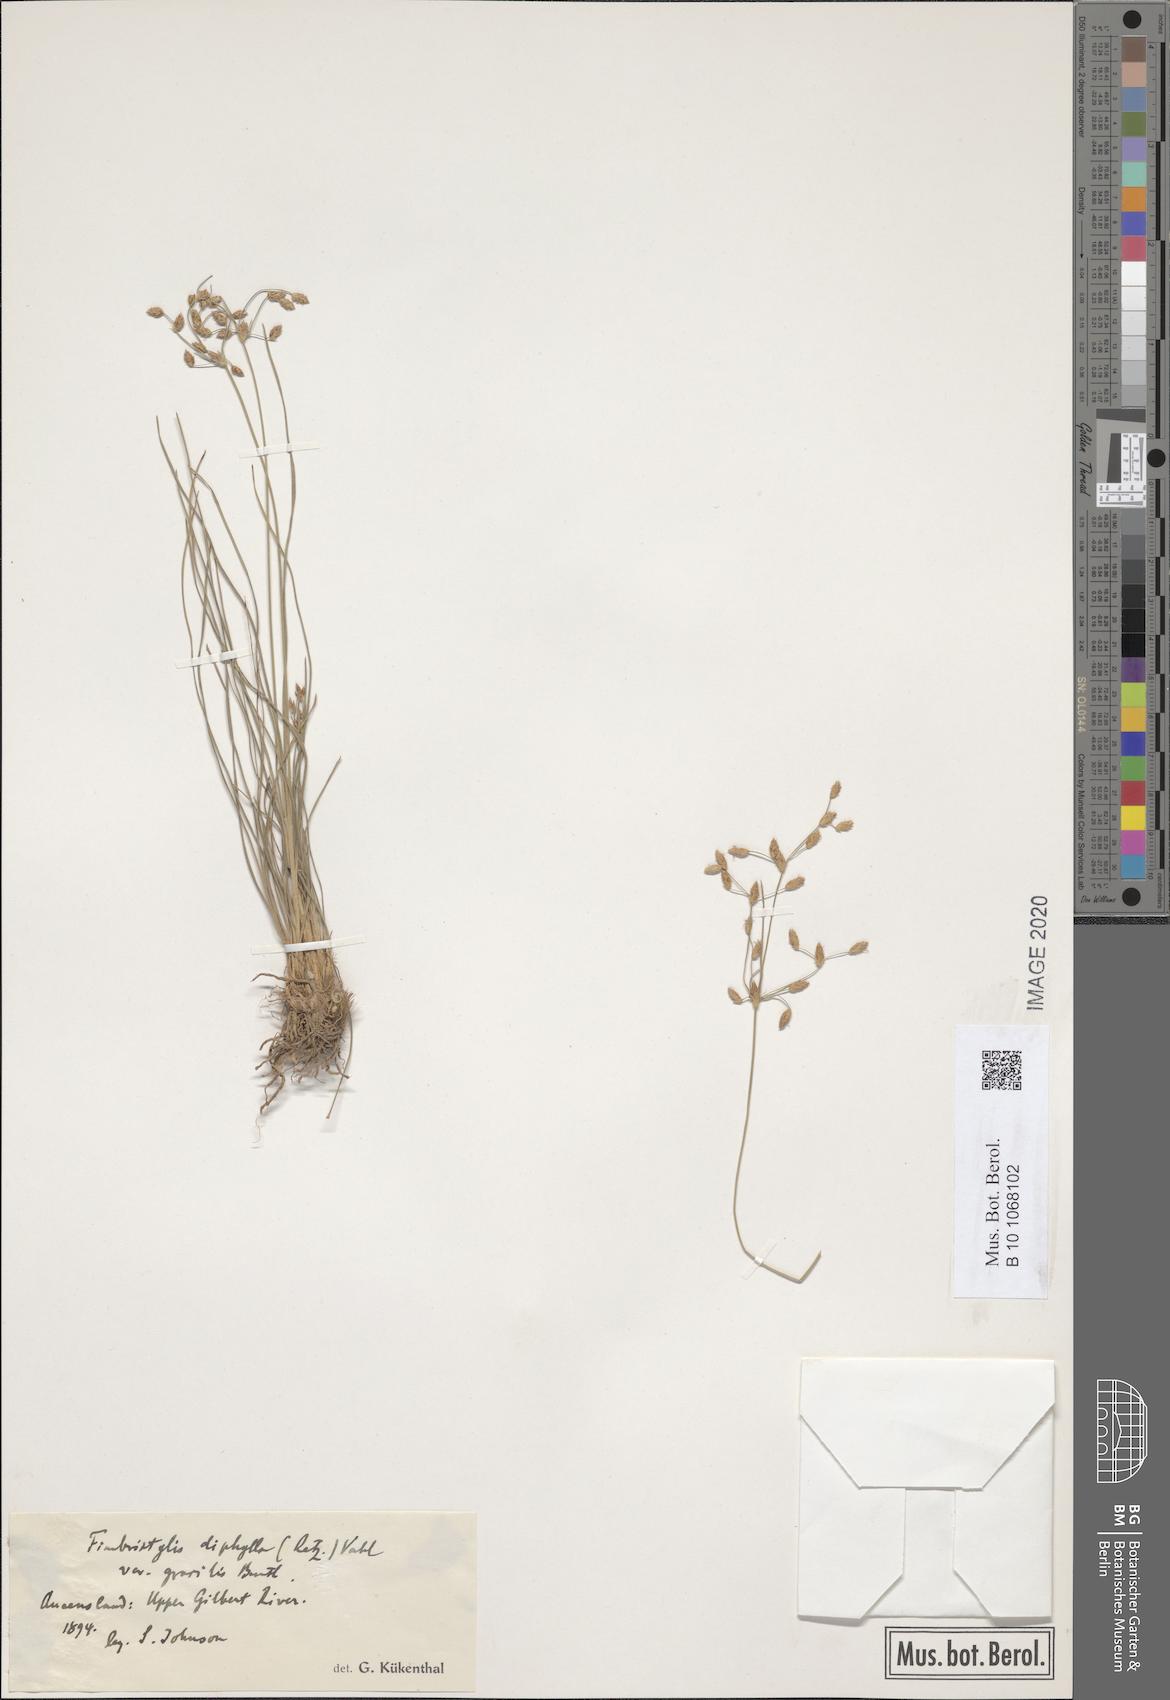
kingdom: Plantae
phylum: Tracheophyta
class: Liliopsida
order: Poales
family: Cyperaceae
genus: Fimbristylis
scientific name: Fimbristylis
